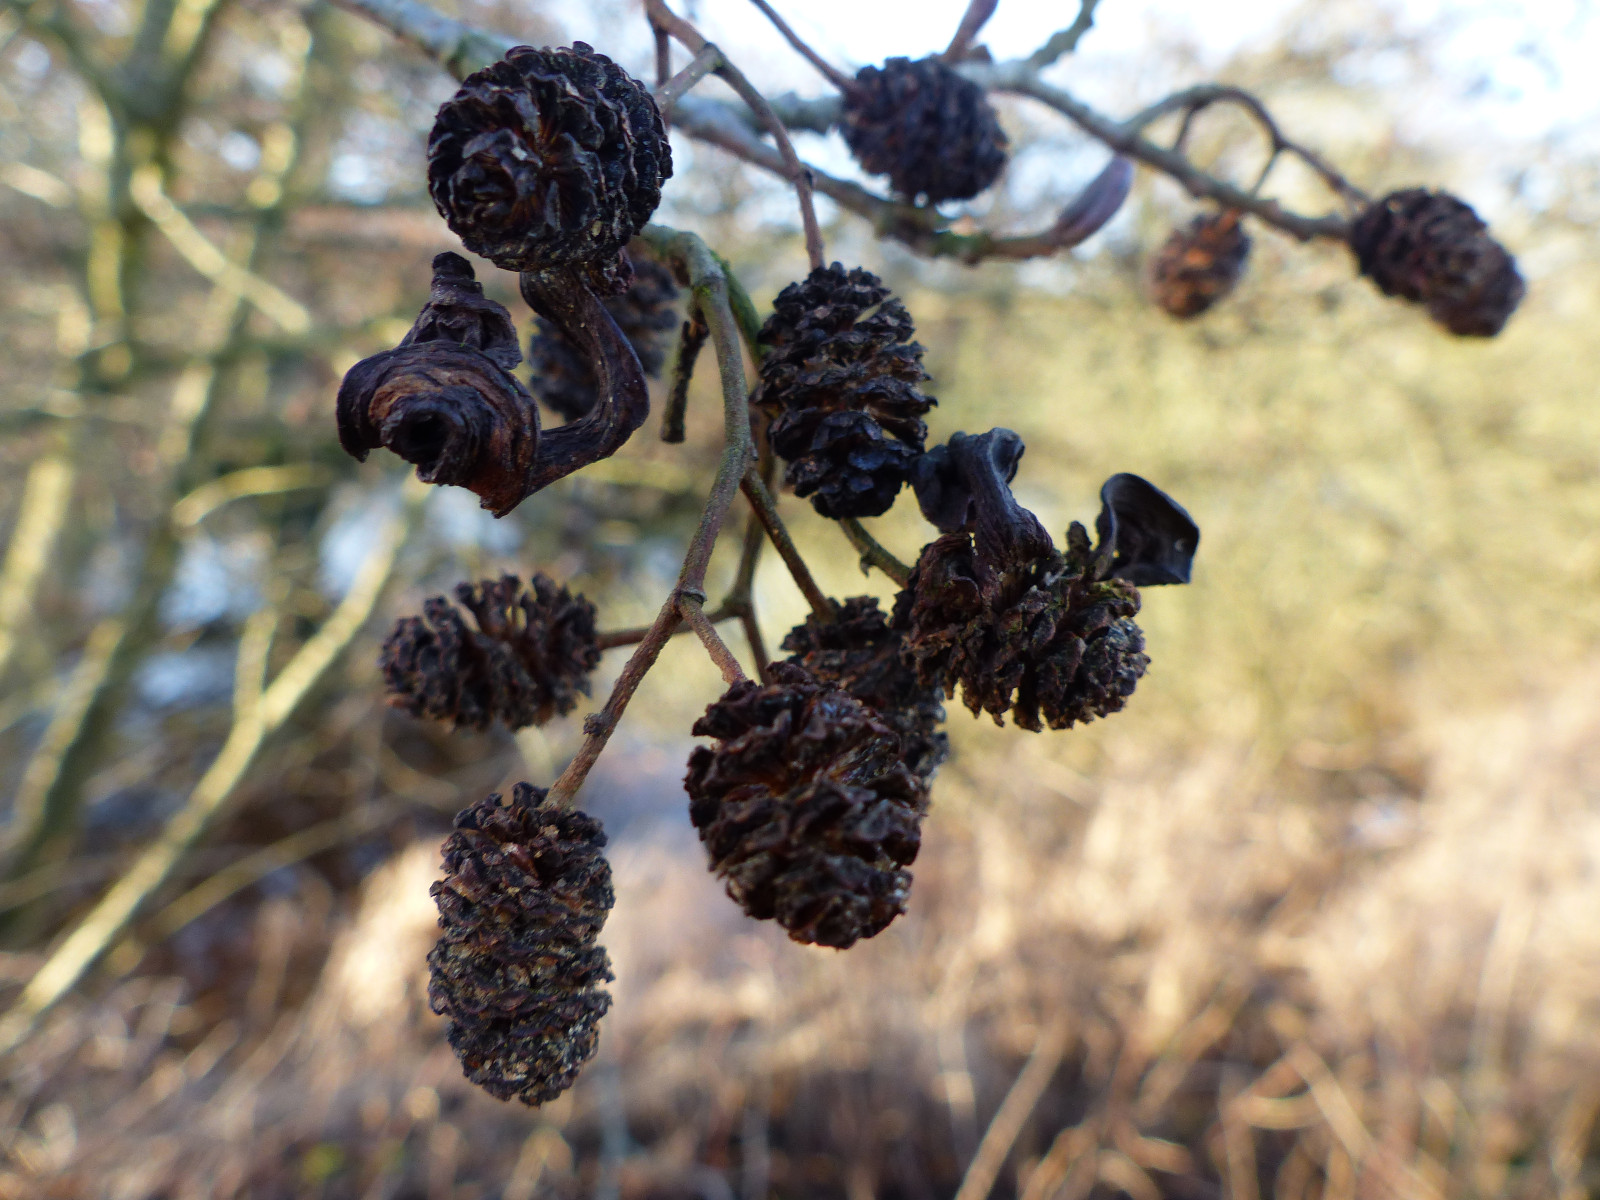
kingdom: Fungi
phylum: Ascomycota
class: Taphrinomycetes
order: Taphrinales
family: Taphrinaceae
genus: Taphrina
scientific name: Taphrina alni
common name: Alder tongue
